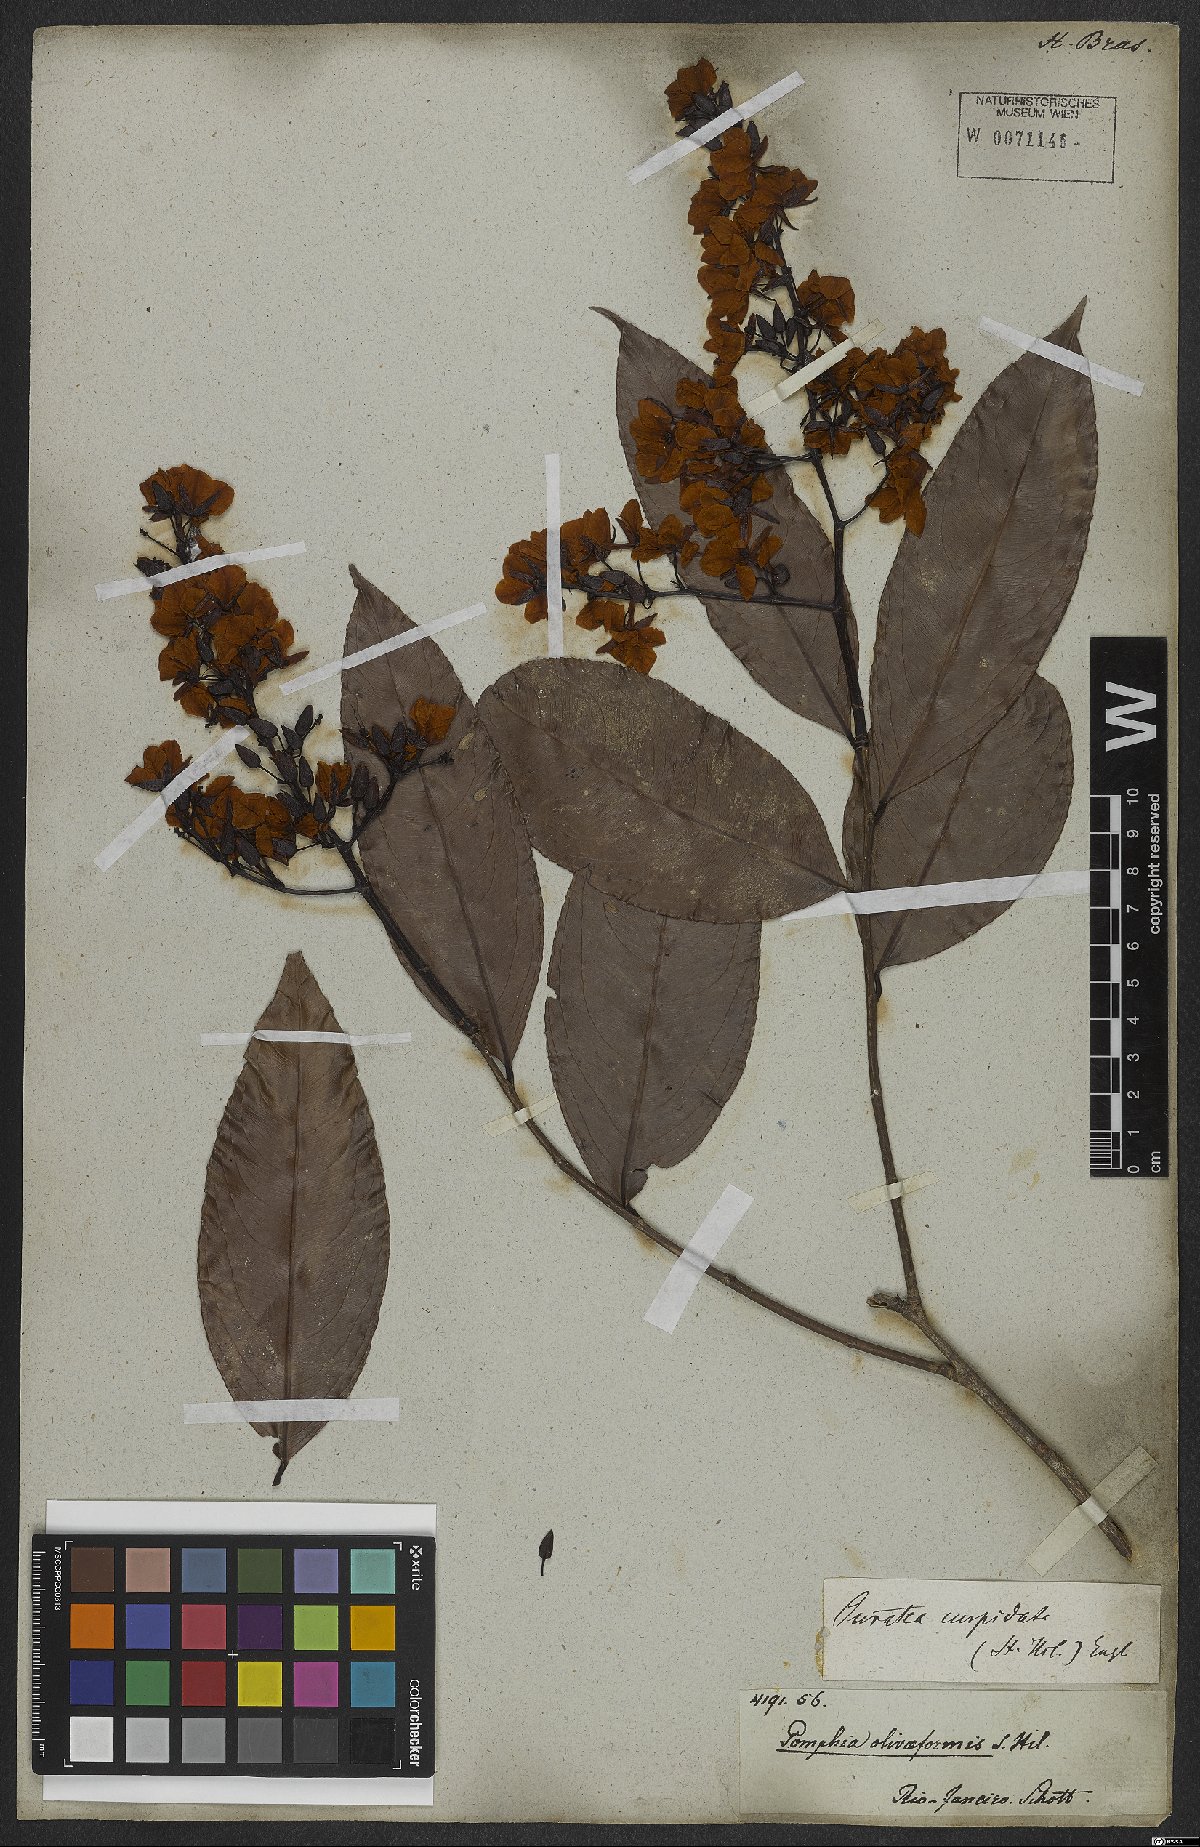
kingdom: Plantae
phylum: Tracheophyta
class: Magnoliopsida
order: Malpighiales
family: Ochnaceae
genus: Ouratea
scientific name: Ouratea cuspidata
